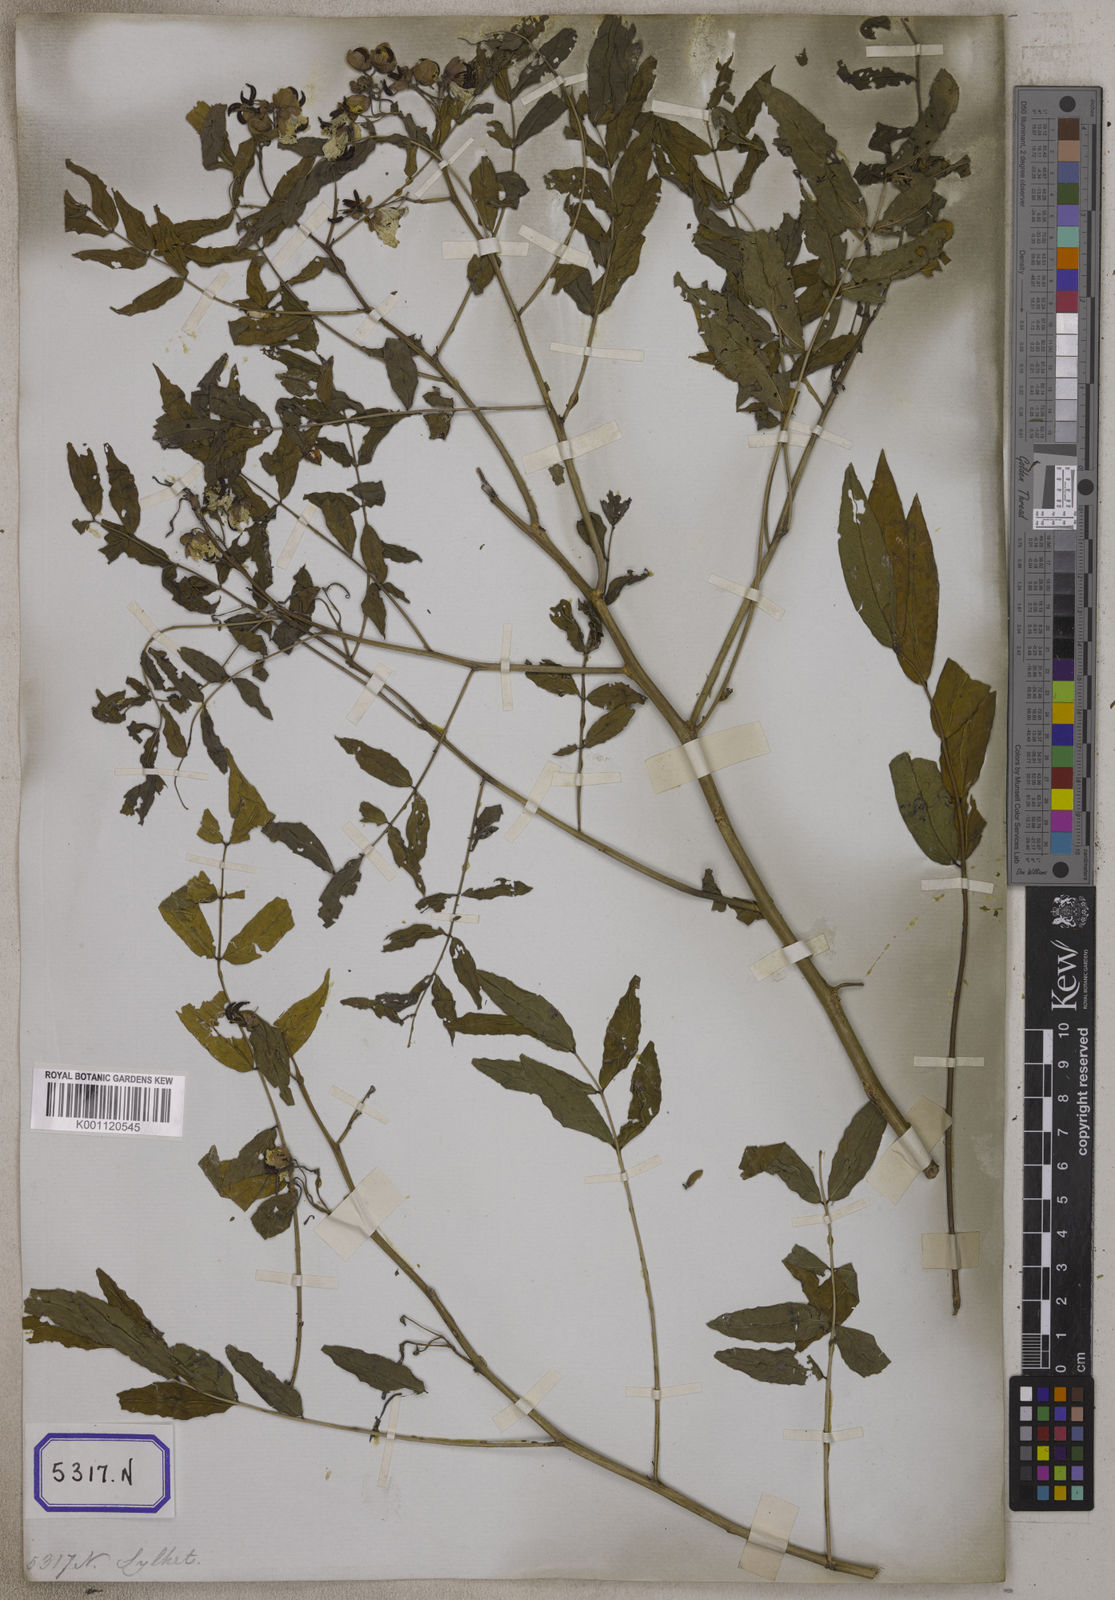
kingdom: Plantae
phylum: Tracheophyta
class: Magnoliopsida
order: Fabales
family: Fabaceae
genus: Cassia
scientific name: Cassia
